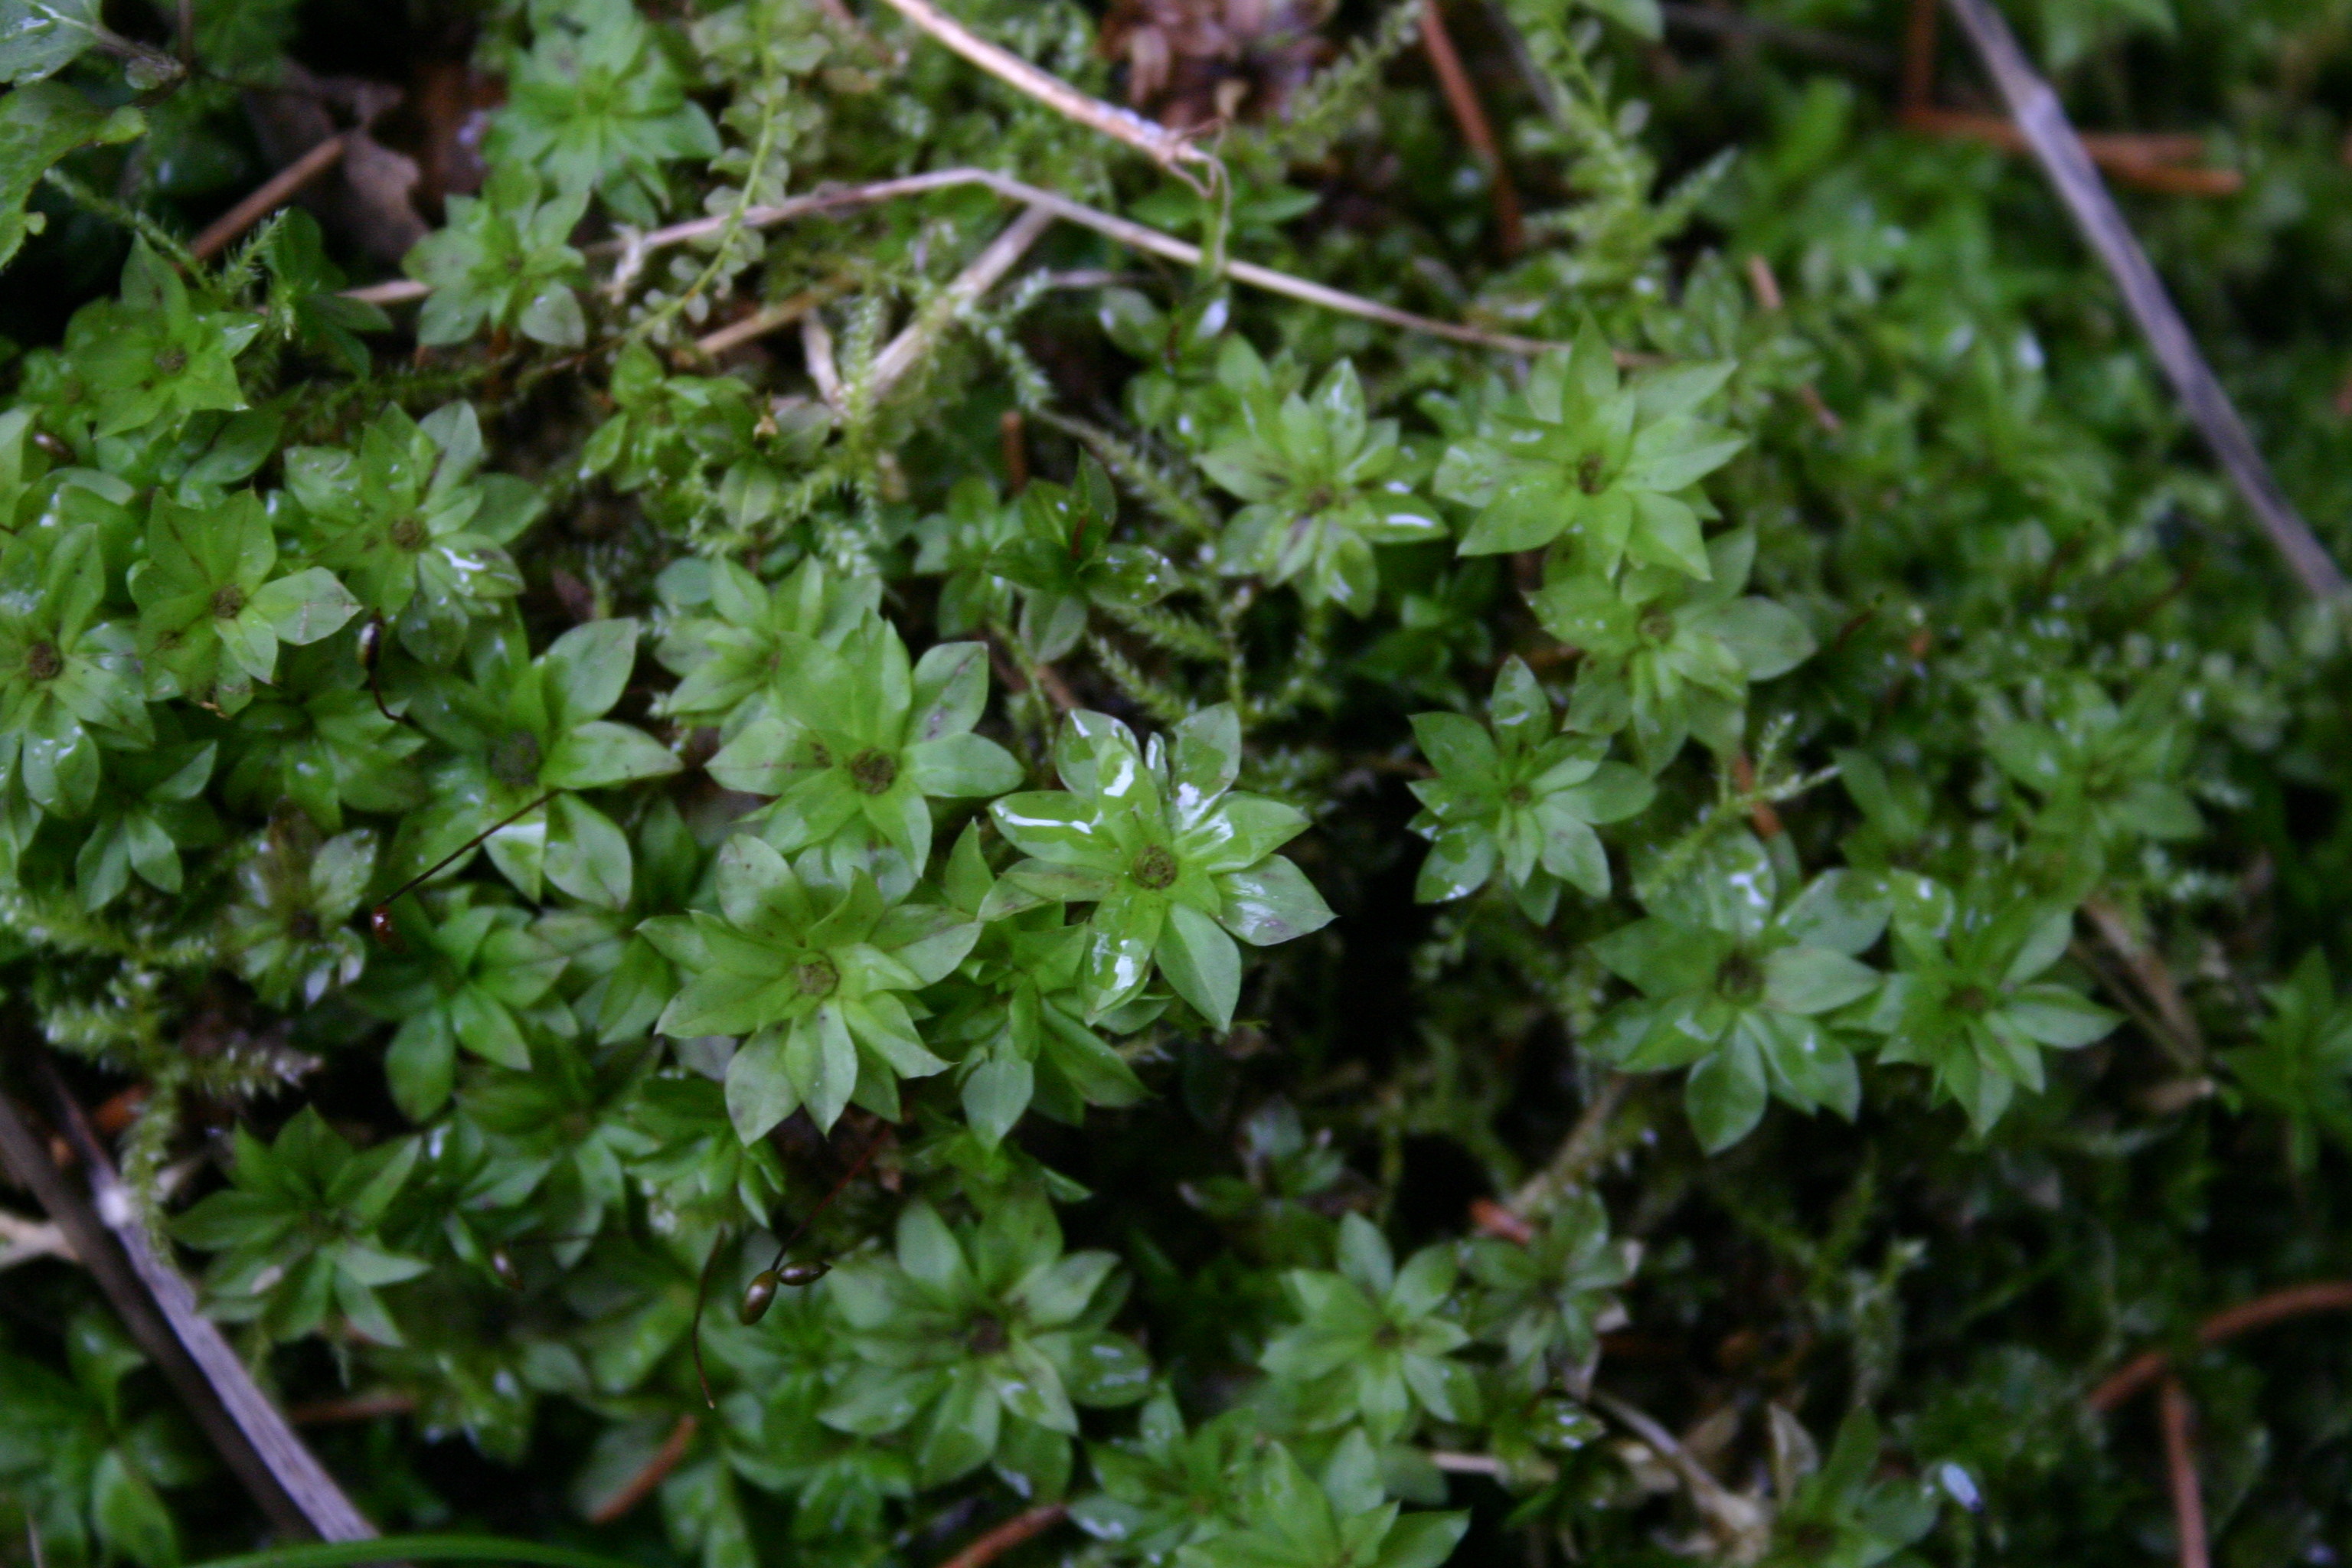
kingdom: Plantae
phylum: Bryophyta
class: Bryopsida
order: Bryales
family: Bryaceae
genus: Rhodobryum
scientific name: Rhodobryum roseum
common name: Rose-moss
